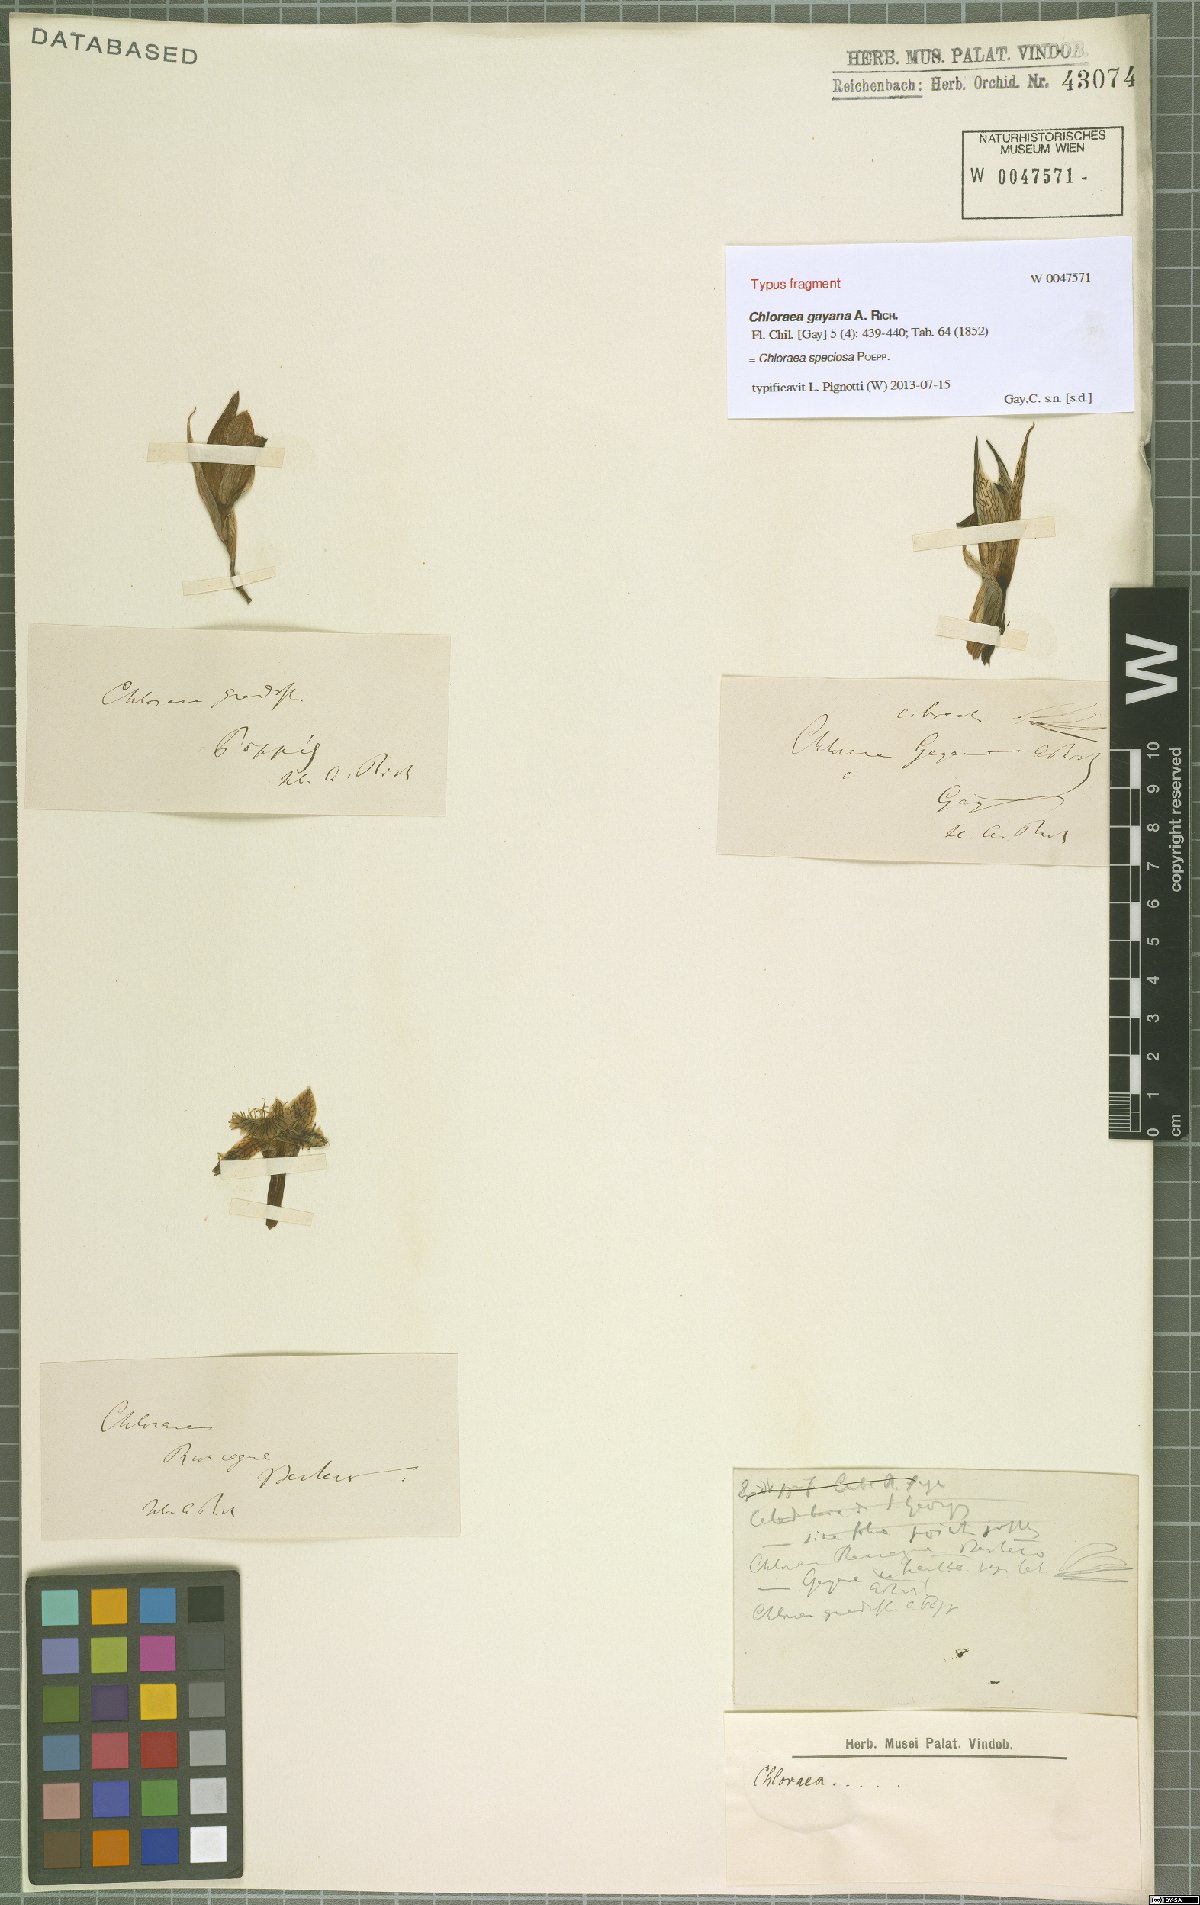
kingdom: Plantae
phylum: Tracheophyta
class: Liliopsida
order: Asparagales
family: Orchidaceae
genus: Chloraea
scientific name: Chloraea speciosa
